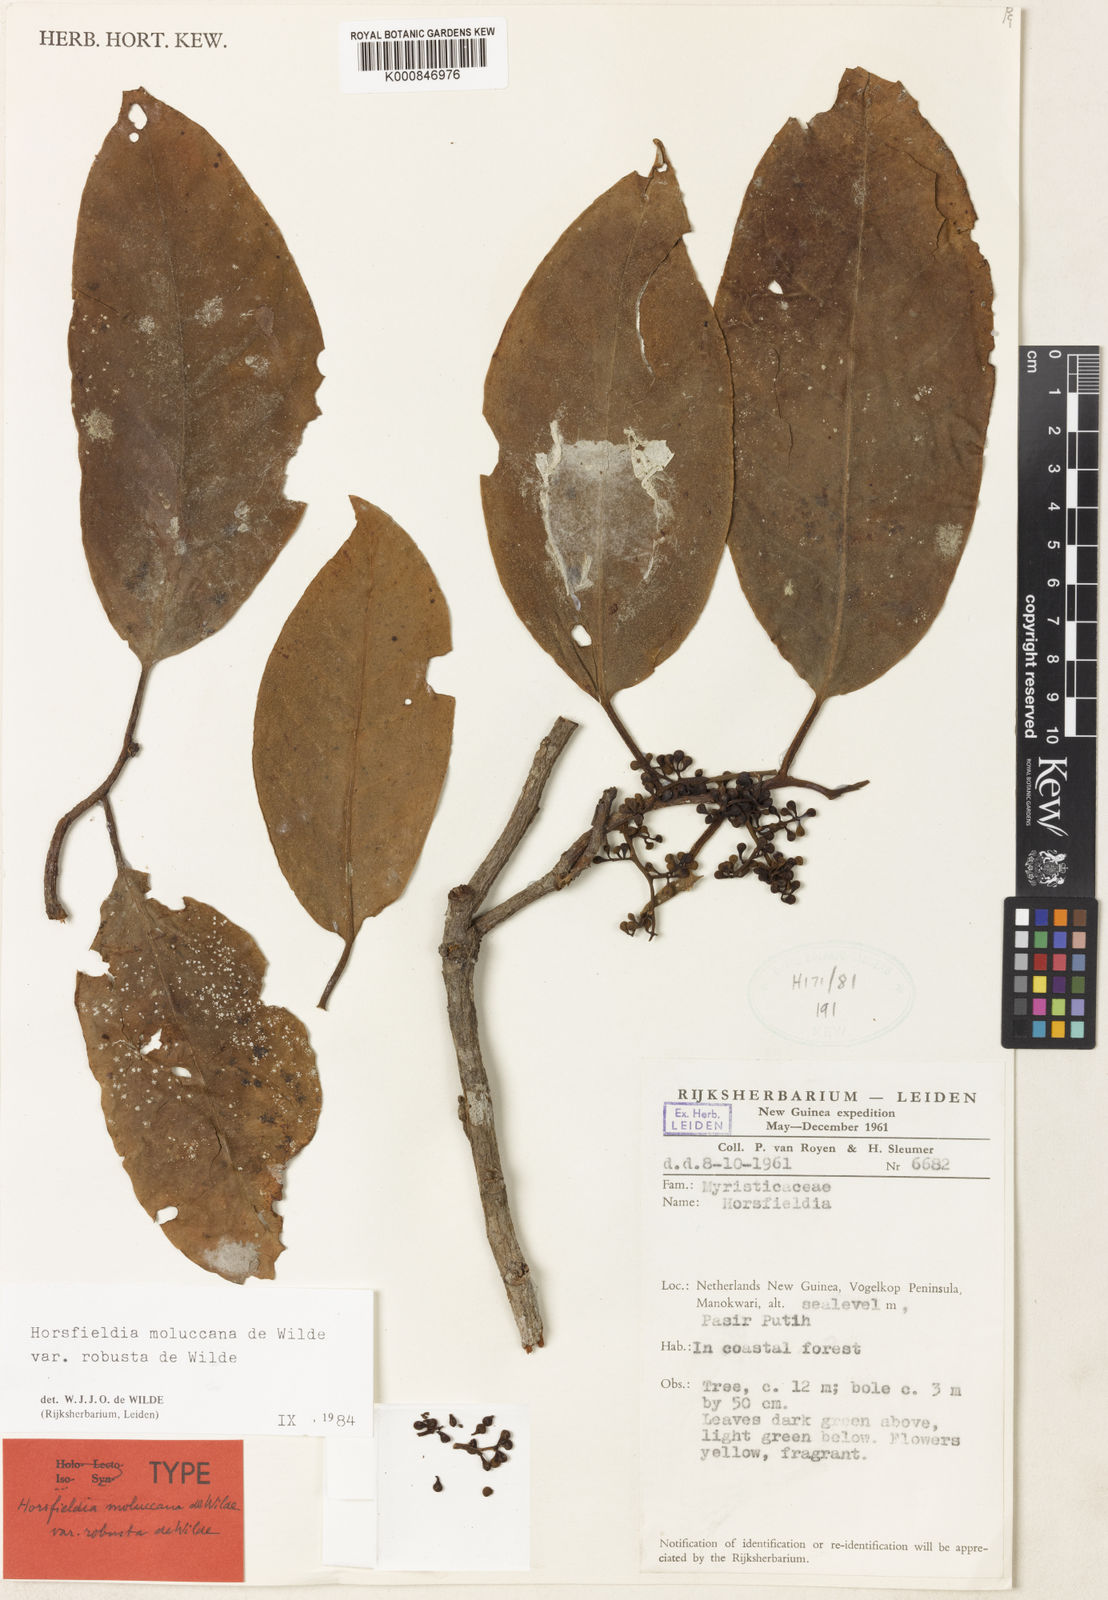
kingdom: Plantae
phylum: Tracheophyta
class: Magnoliopsida
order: Magnoliales
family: Myristicaceae
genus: Horsfieldia
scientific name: Horsfieldia moluccana
